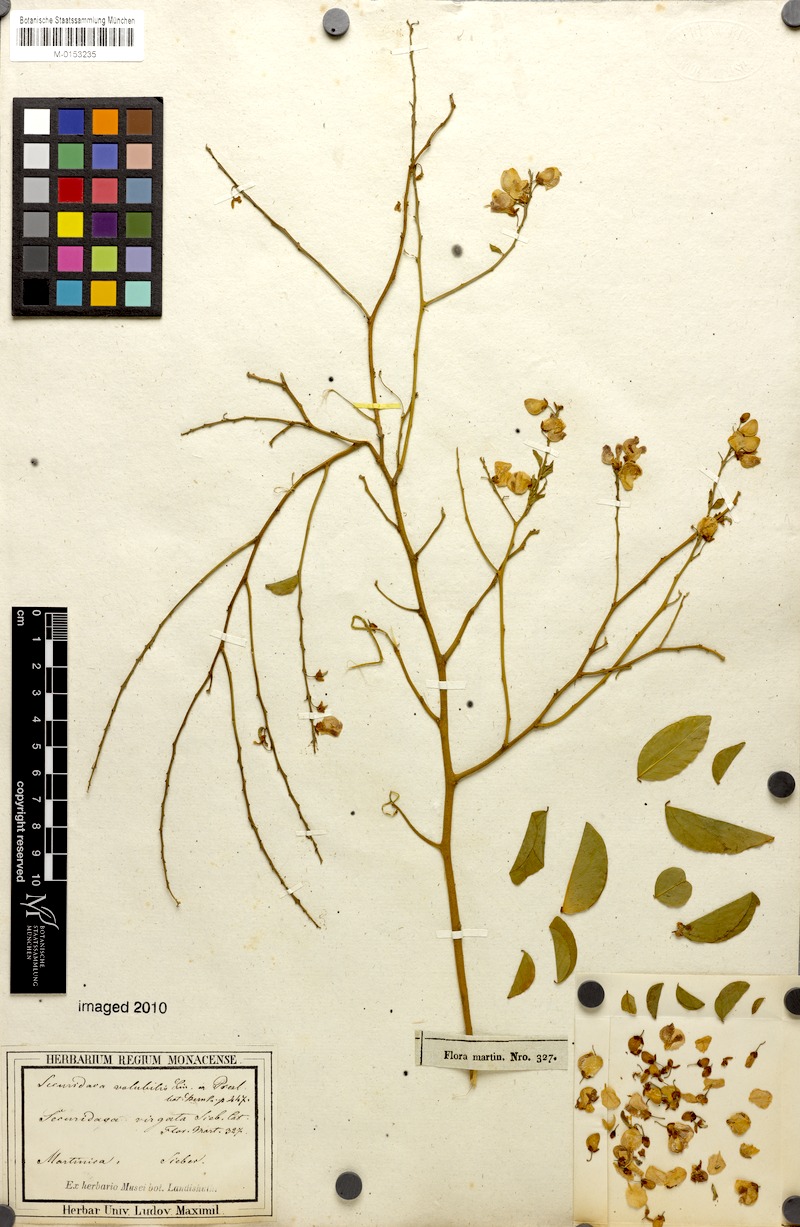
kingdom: Plantae
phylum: Tracheophyta
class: Magnoliopsida
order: Fabales
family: Polygalaceae
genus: Securidaca
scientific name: Securidaca divaricata
